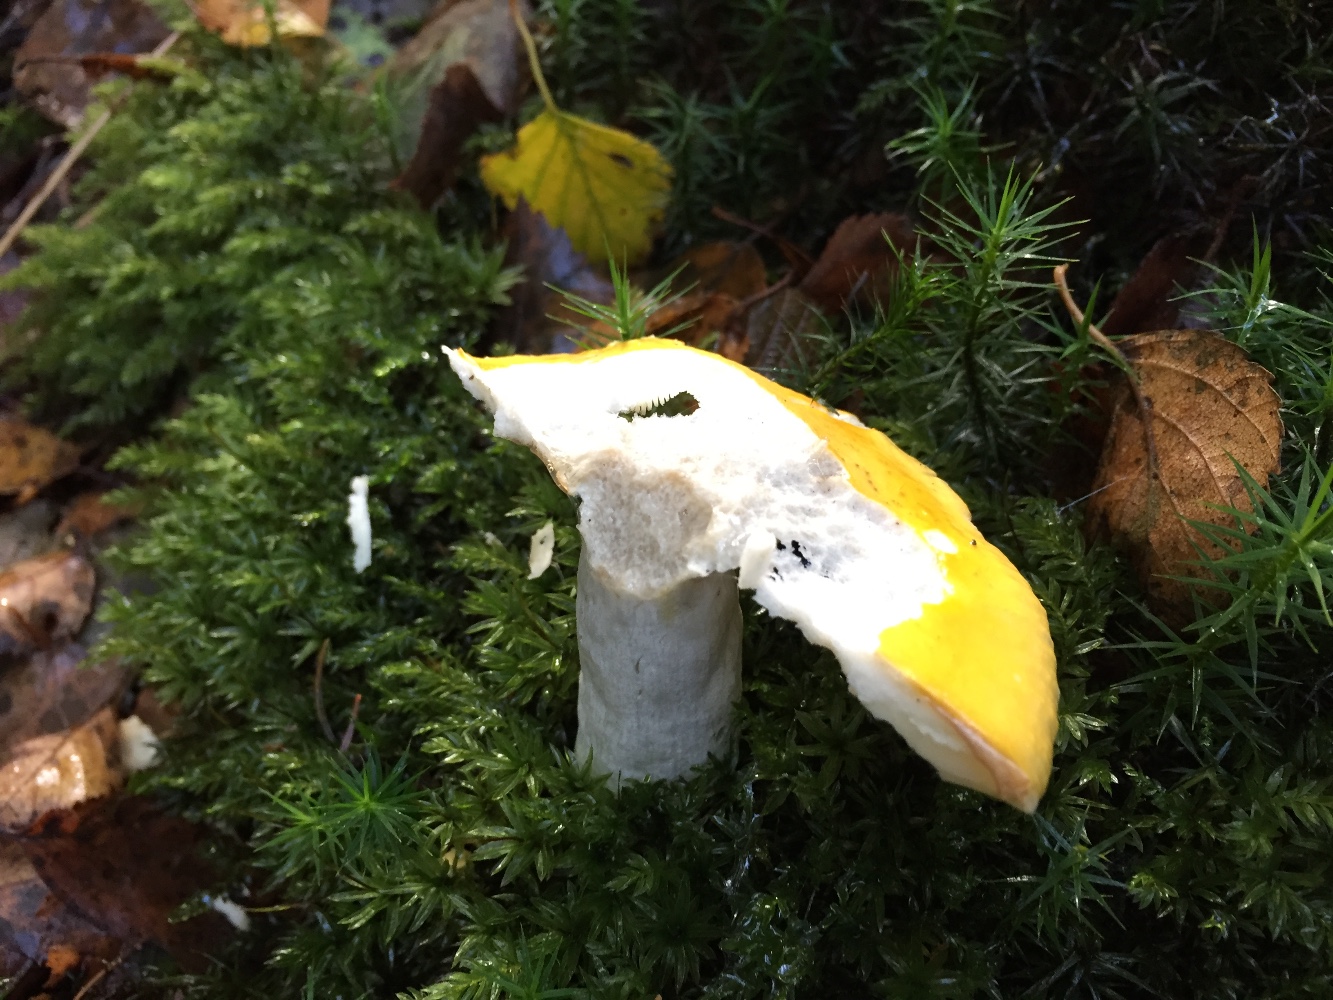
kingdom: Fungi
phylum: Basidiomycota
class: Agaricomycetes
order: Russulales
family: Russulaceae
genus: Russula
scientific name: Russula claroflava
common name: birke-skørhat
